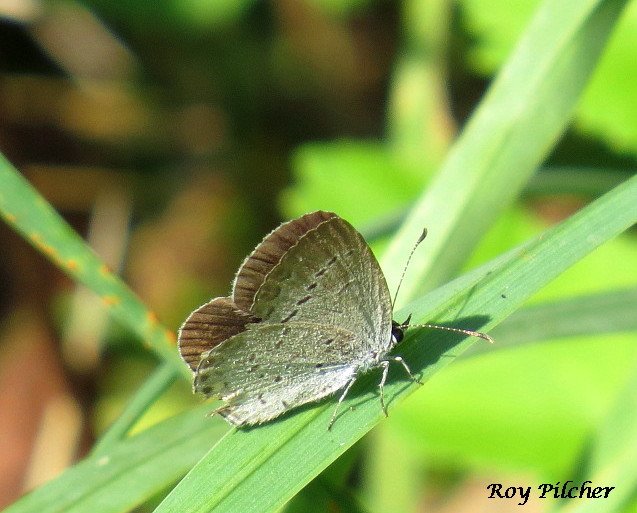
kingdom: Animalia
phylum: Arthropoda
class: Insecta
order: Lepidoptera
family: Lycaenidae
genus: Elkalyce
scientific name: Elkalyce comyntas
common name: Eastern Tailed-Blue
